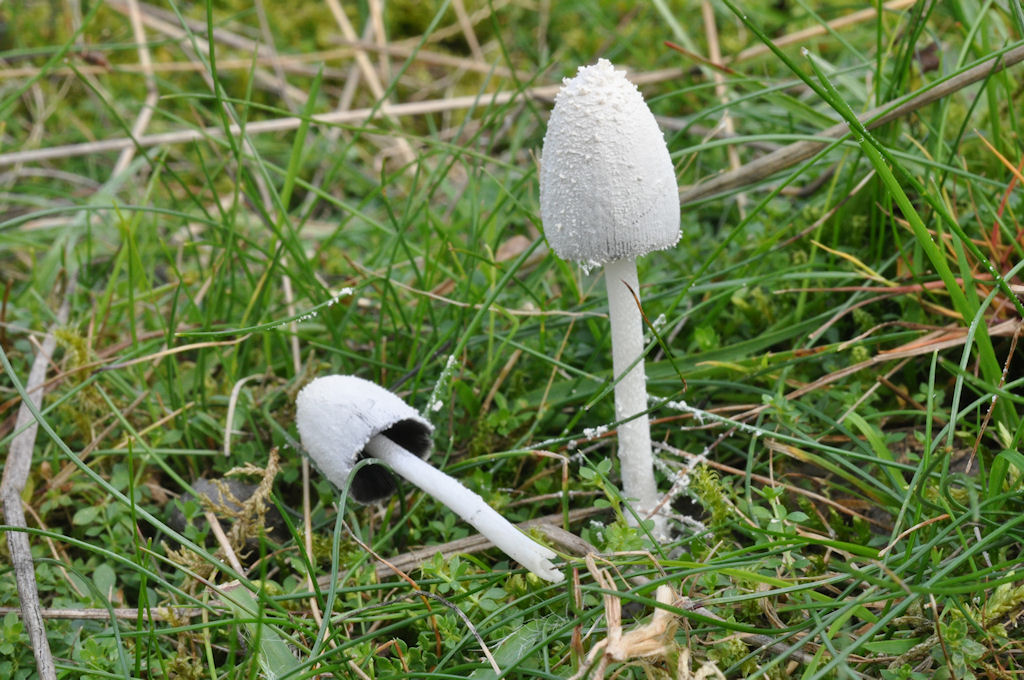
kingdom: Fungi
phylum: Basidiomycota
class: Agaricomycetes
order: Agaricales
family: Psathyrellaceae
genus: Coprinopsis
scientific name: Coprinopsis nivea
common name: snehvid blækhat
